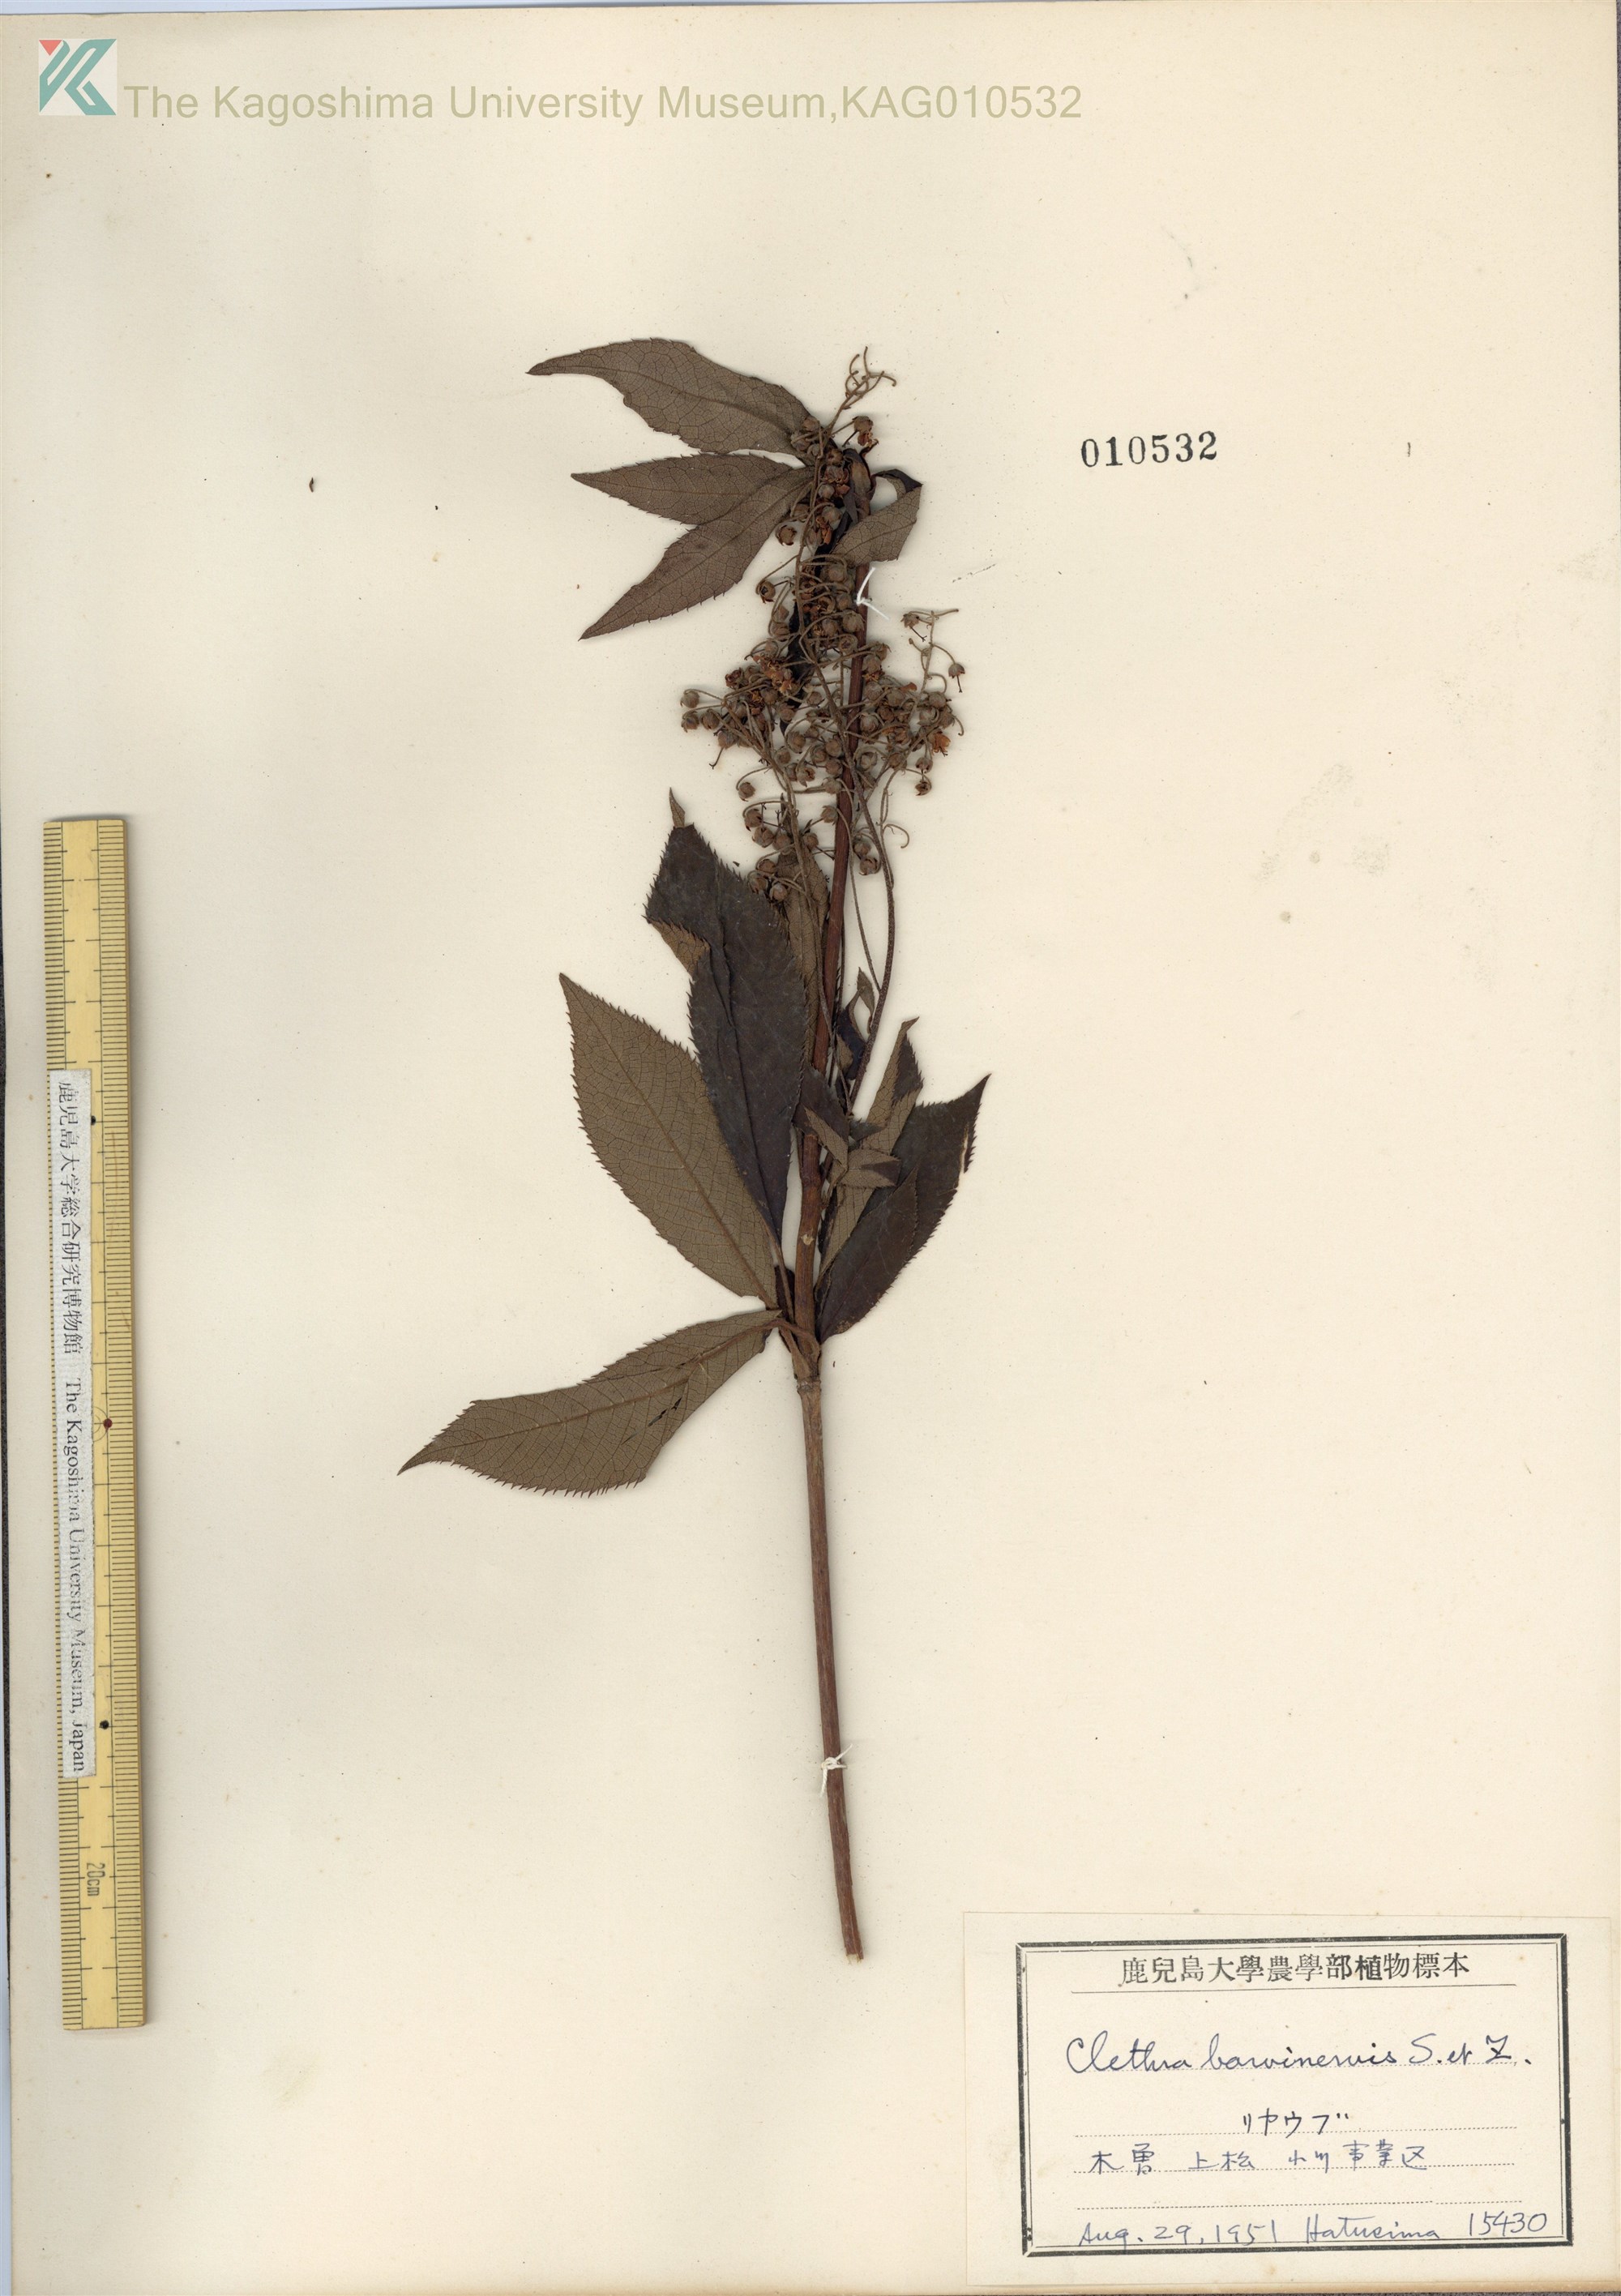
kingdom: Plantae
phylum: Tracheophyta
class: Magnoliopsida
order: Ericales
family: Clethraceae
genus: Clethra
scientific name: Clethra barbinervis
